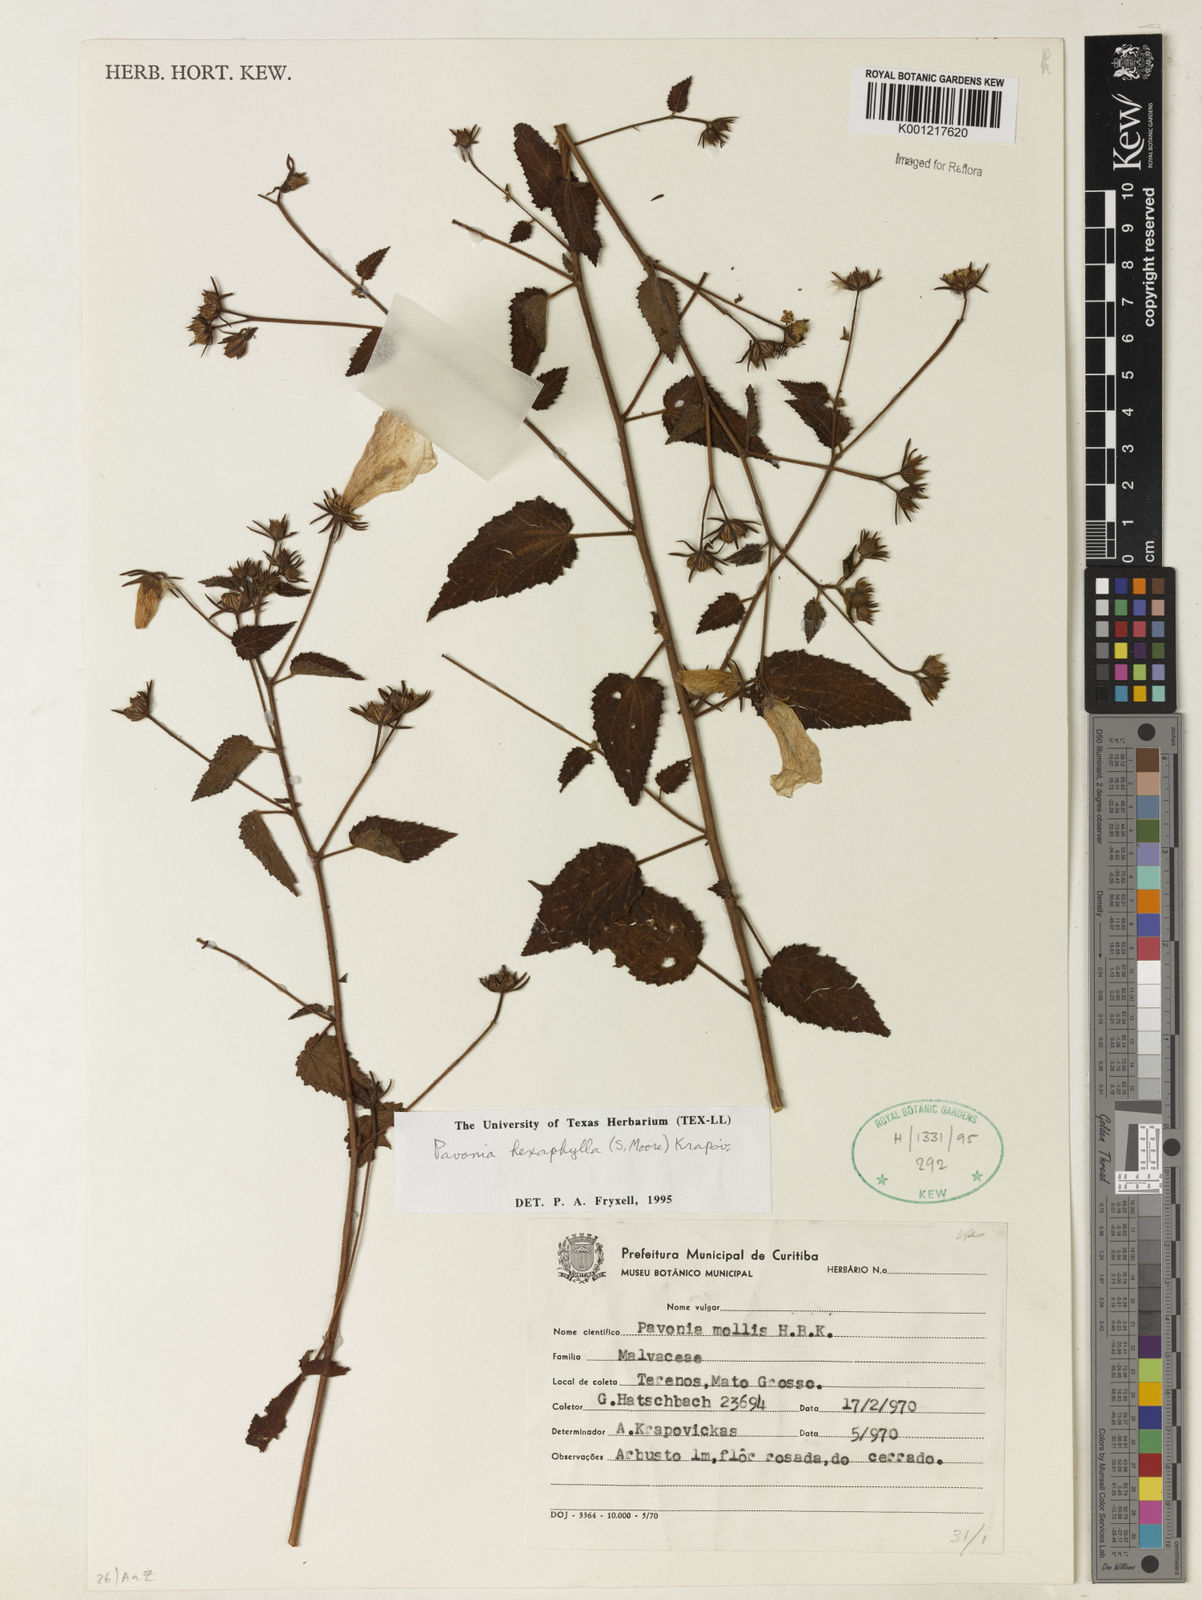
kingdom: Plantae
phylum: Tracheophyta
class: Magnoliopsida
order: Malvales
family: Malvaceae
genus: Pavonia
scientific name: Pavonia geminiflora
